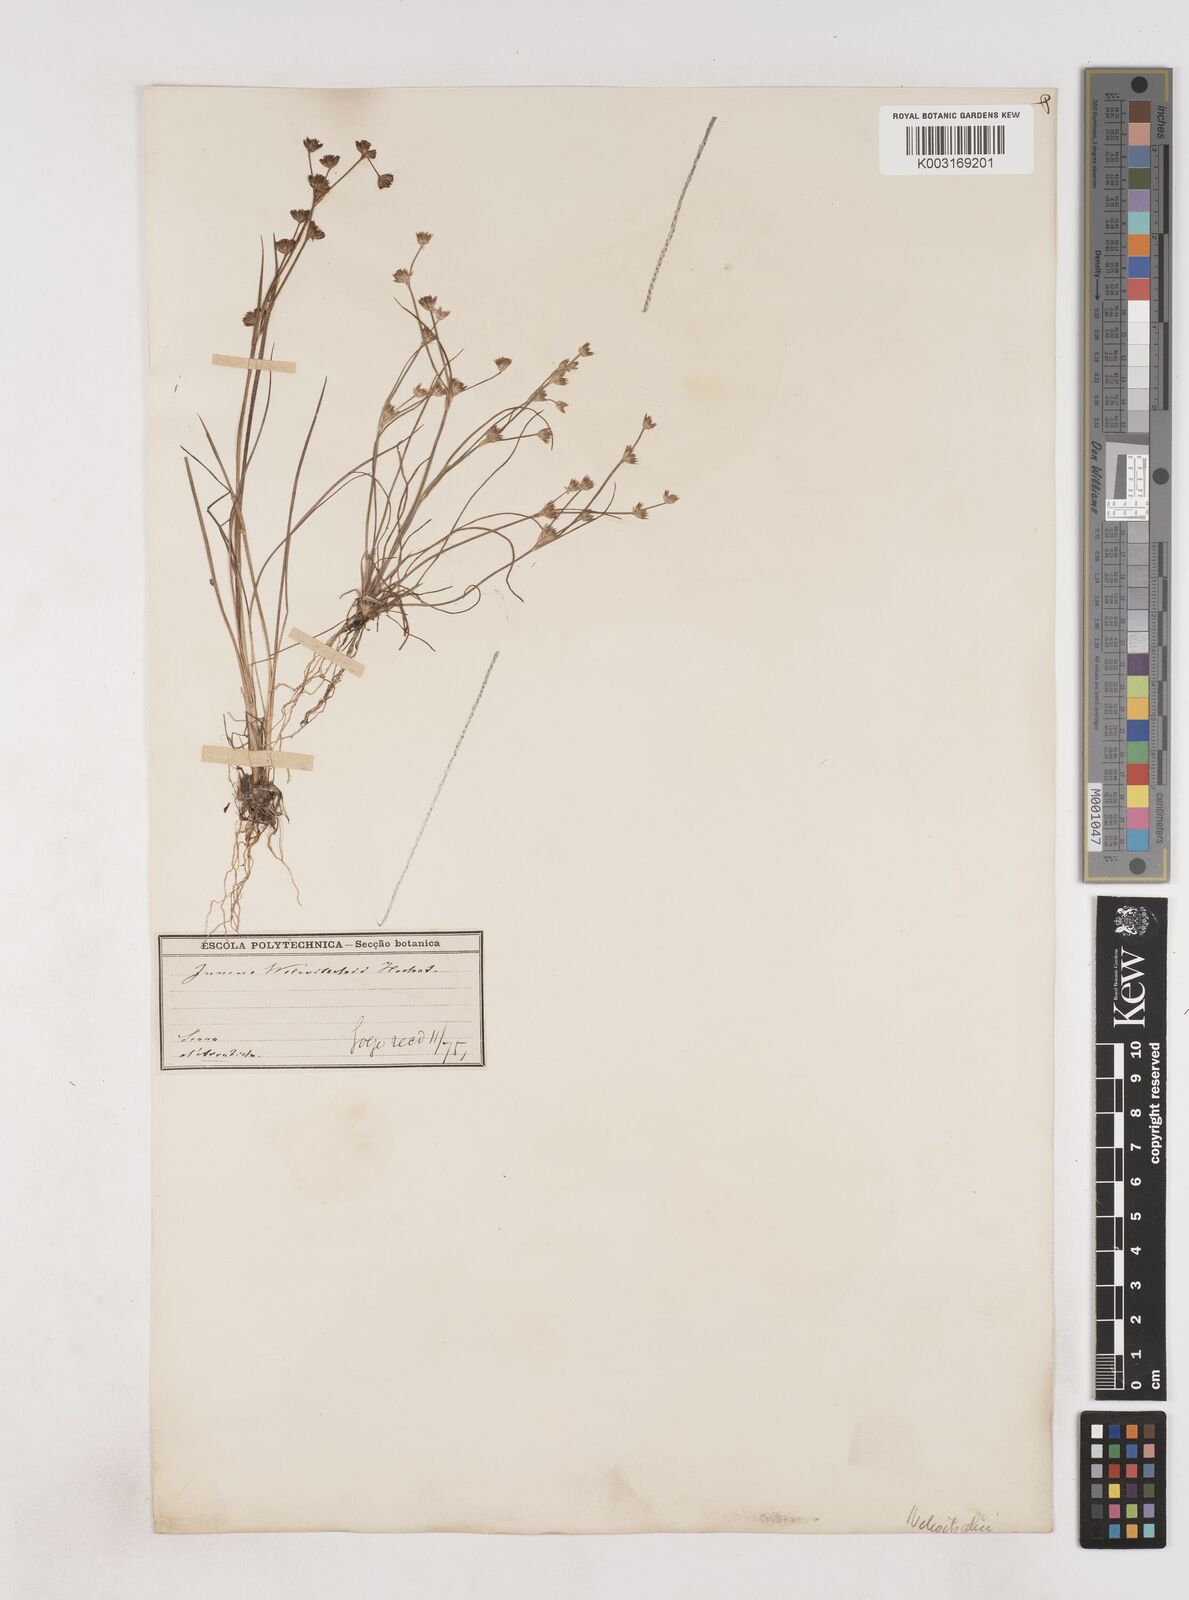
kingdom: Plantae
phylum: Tracheophyta
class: Liliopsida
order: Poales
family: Juncaceae
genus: Juncus
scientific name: Juncus bulbosus
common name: Bulbous rush
